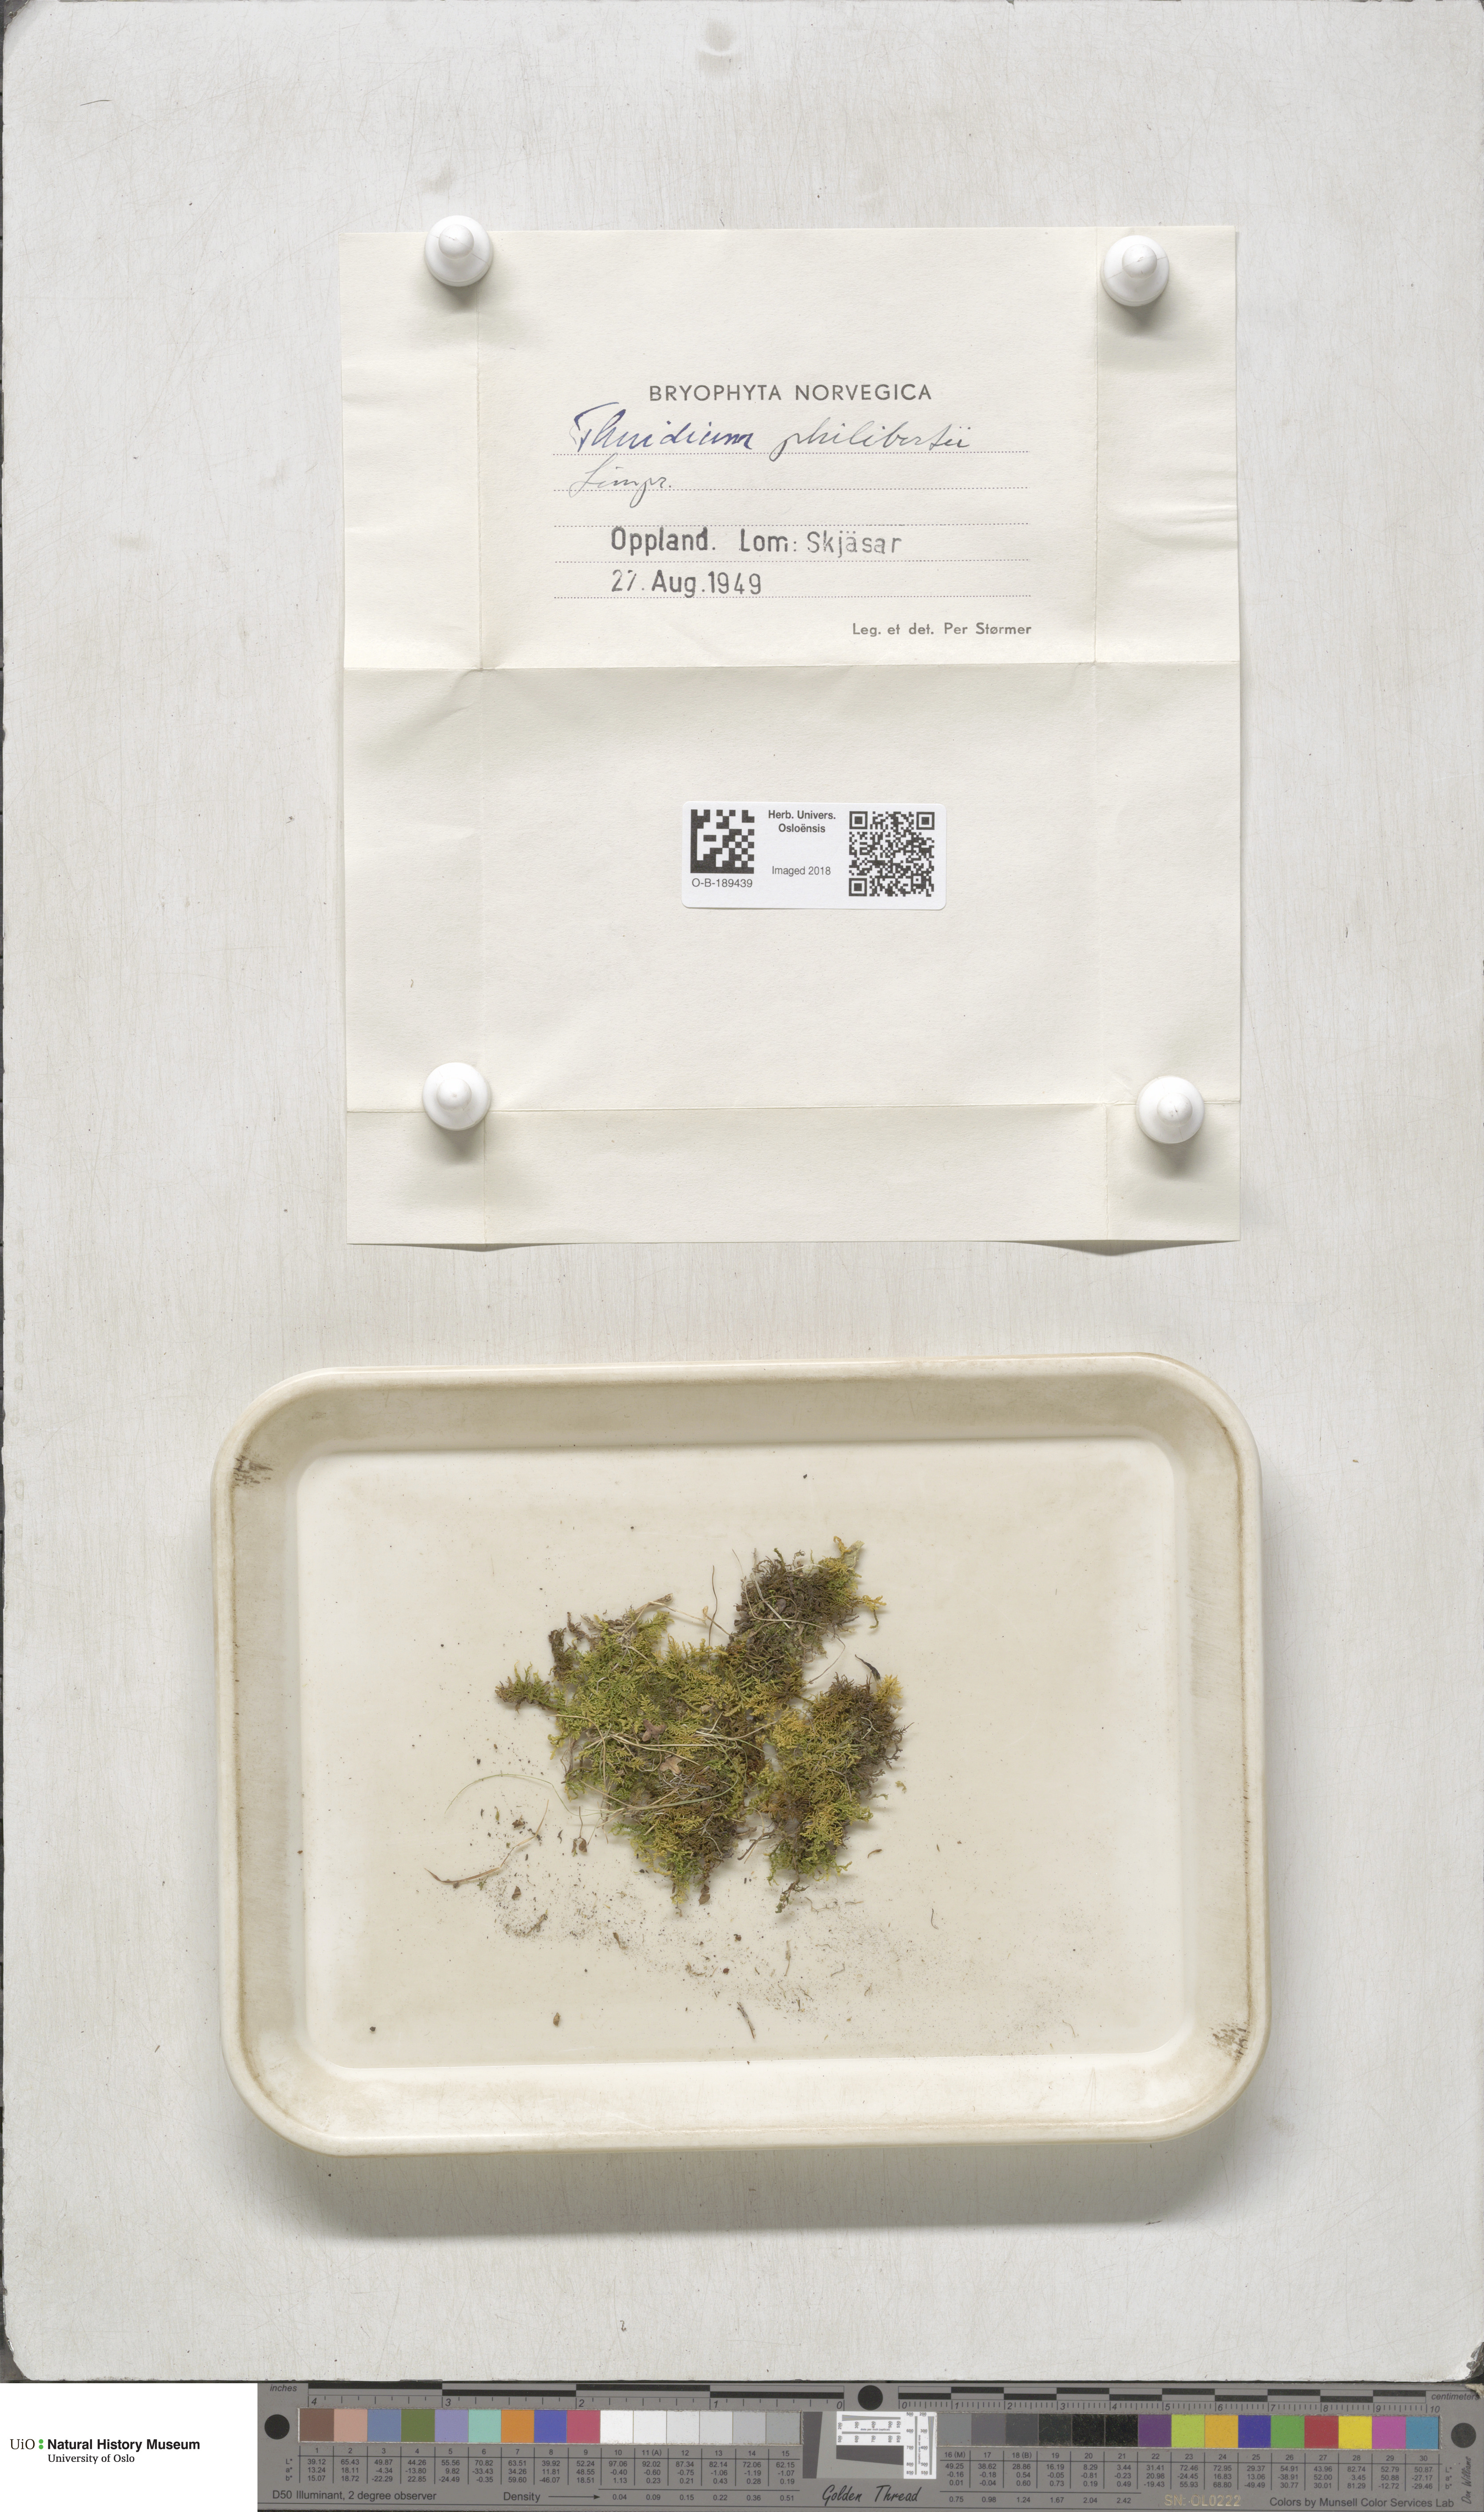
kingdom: Plantae
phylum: Bryophyta
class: Bryopsida
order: Hypnales
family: Thuidiaceae
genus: Thuidium
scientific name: Thuidium assimile
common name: Philibert's fern moss
